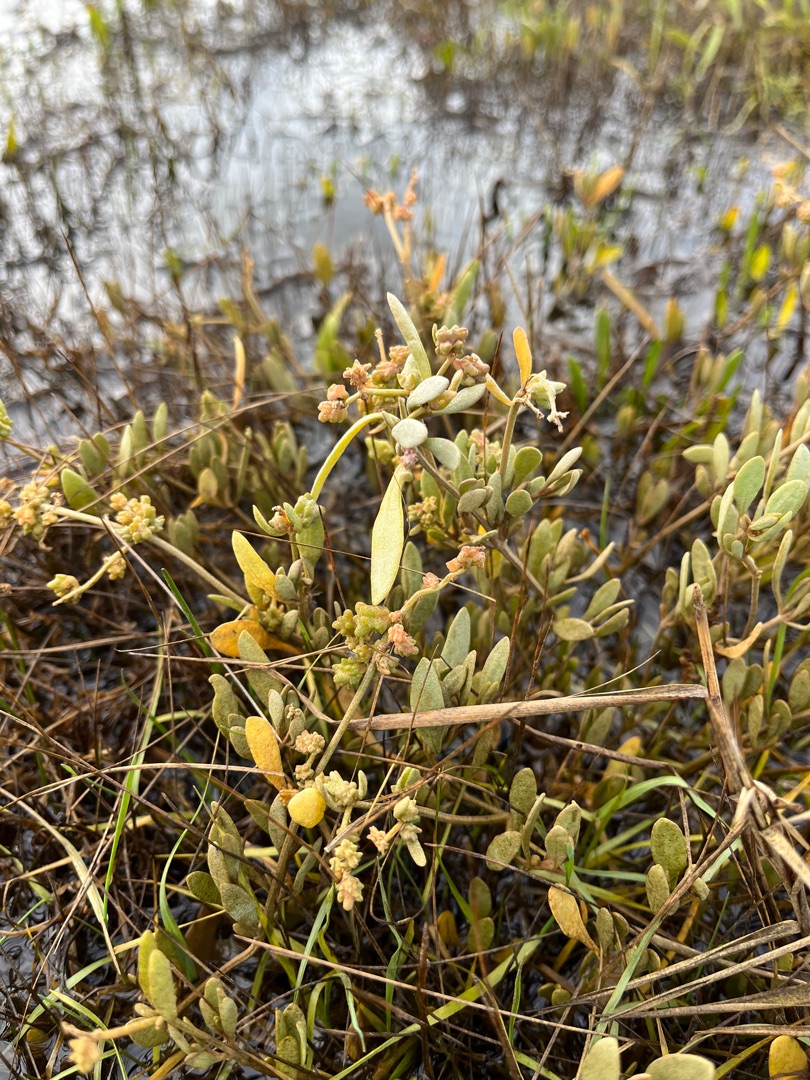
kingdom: Plantae
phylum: Tracheophyta
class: Magnoliopsida
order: Caryophyllales
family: Amaranthaceae
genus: Halimione
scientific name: Halimione portulacoides
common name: Stilkløs kilebæger
